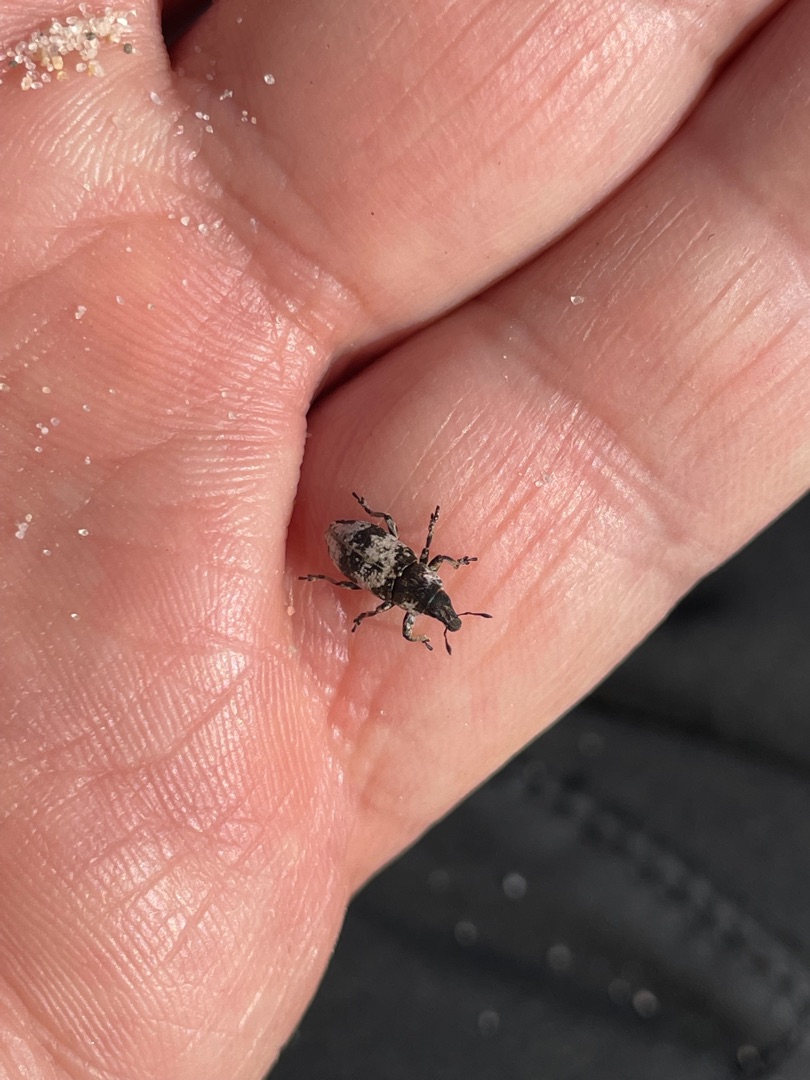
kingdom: Animalia
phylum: Arthropoda
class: Insecta
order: Coleoptera
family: Curculionidae
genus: Bothynoderes
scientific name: Bothynoderes affinis
